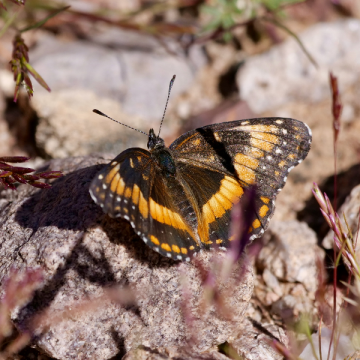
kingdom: Animalia
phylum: Arthropoda
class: Insecta
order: Lepidoptera
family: Nymphalidae
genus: Chlosyne
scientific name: Chlosyne californica
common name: California Patch
